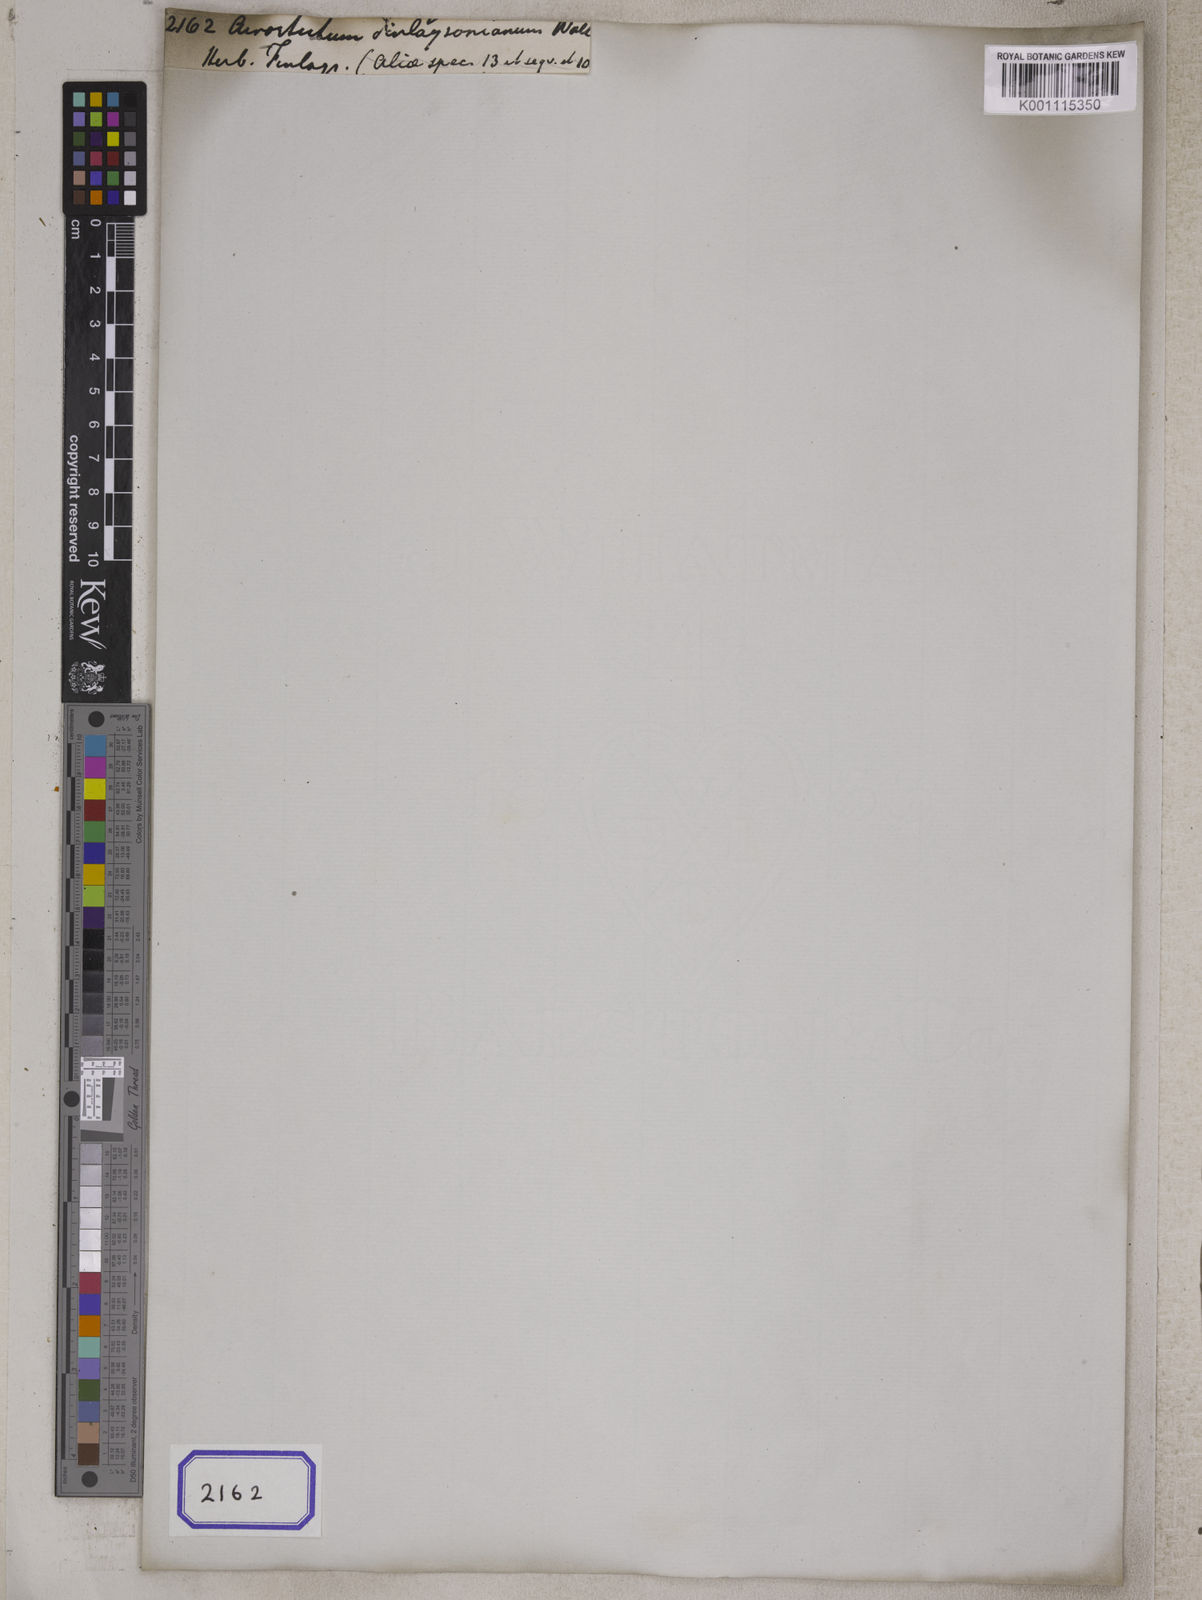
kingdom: Plantae
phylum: Tracheophyta
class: Polypodiopsida
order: Polypodiales
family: Dryopteridaceae
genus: Bolbitis
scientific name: Bolbitis auriculata
